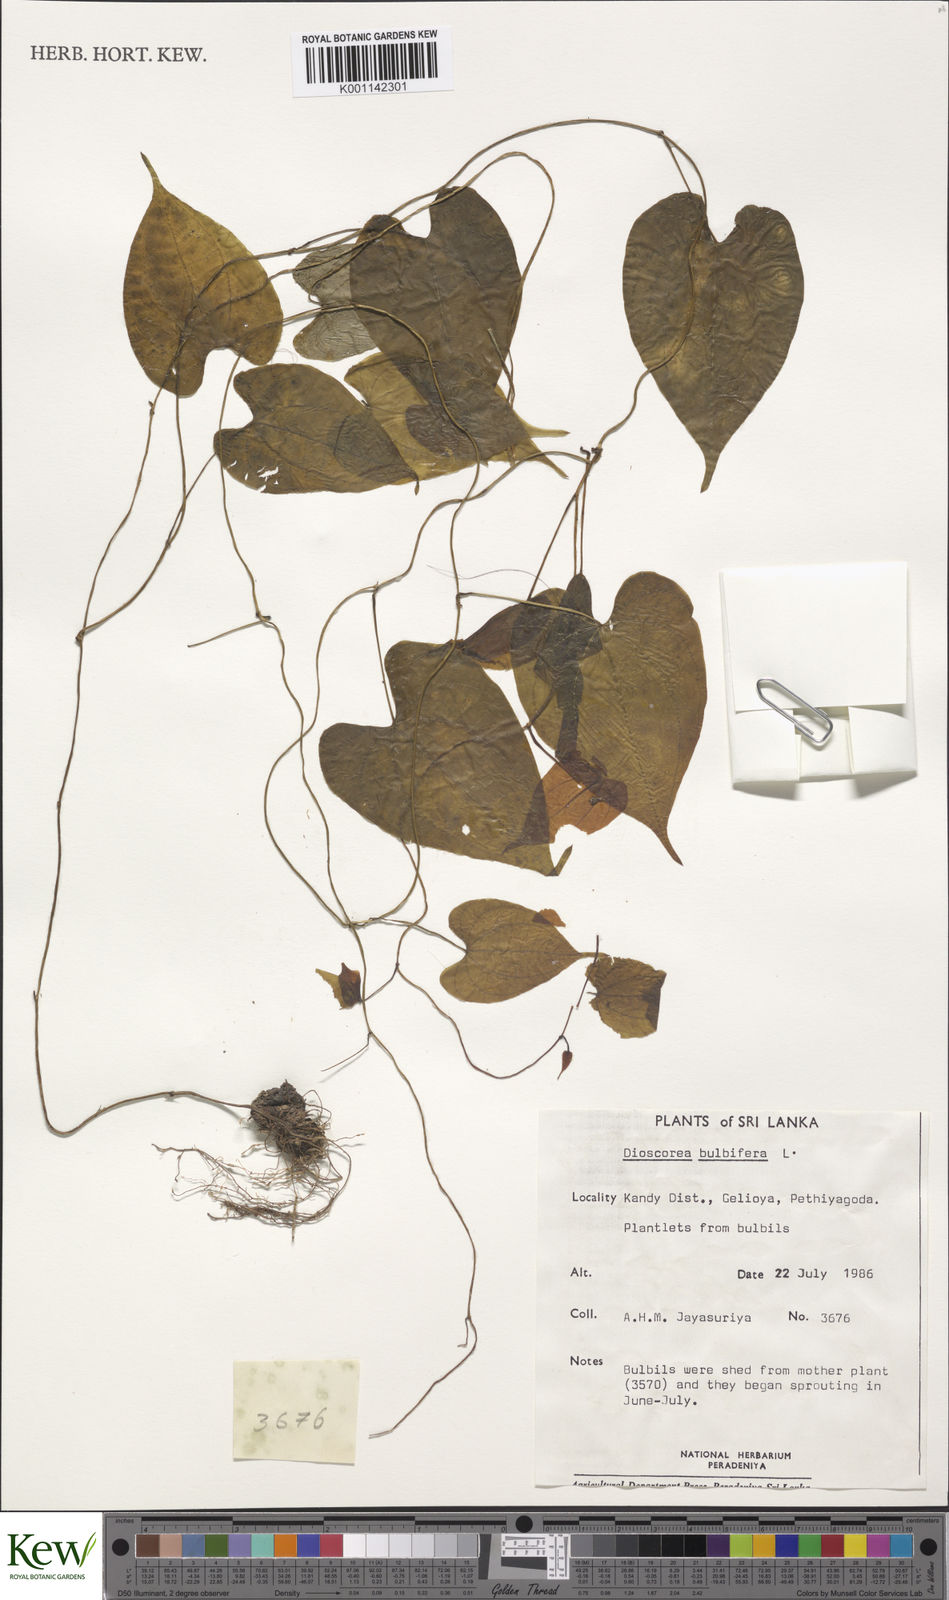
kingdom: Plantae
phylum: Tracheophyta
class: Liliopsida
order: Dioscoreales
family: Dioscoreaceae
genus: Dioscorea
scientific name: Dioscorea bulbifera
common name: Air yam
